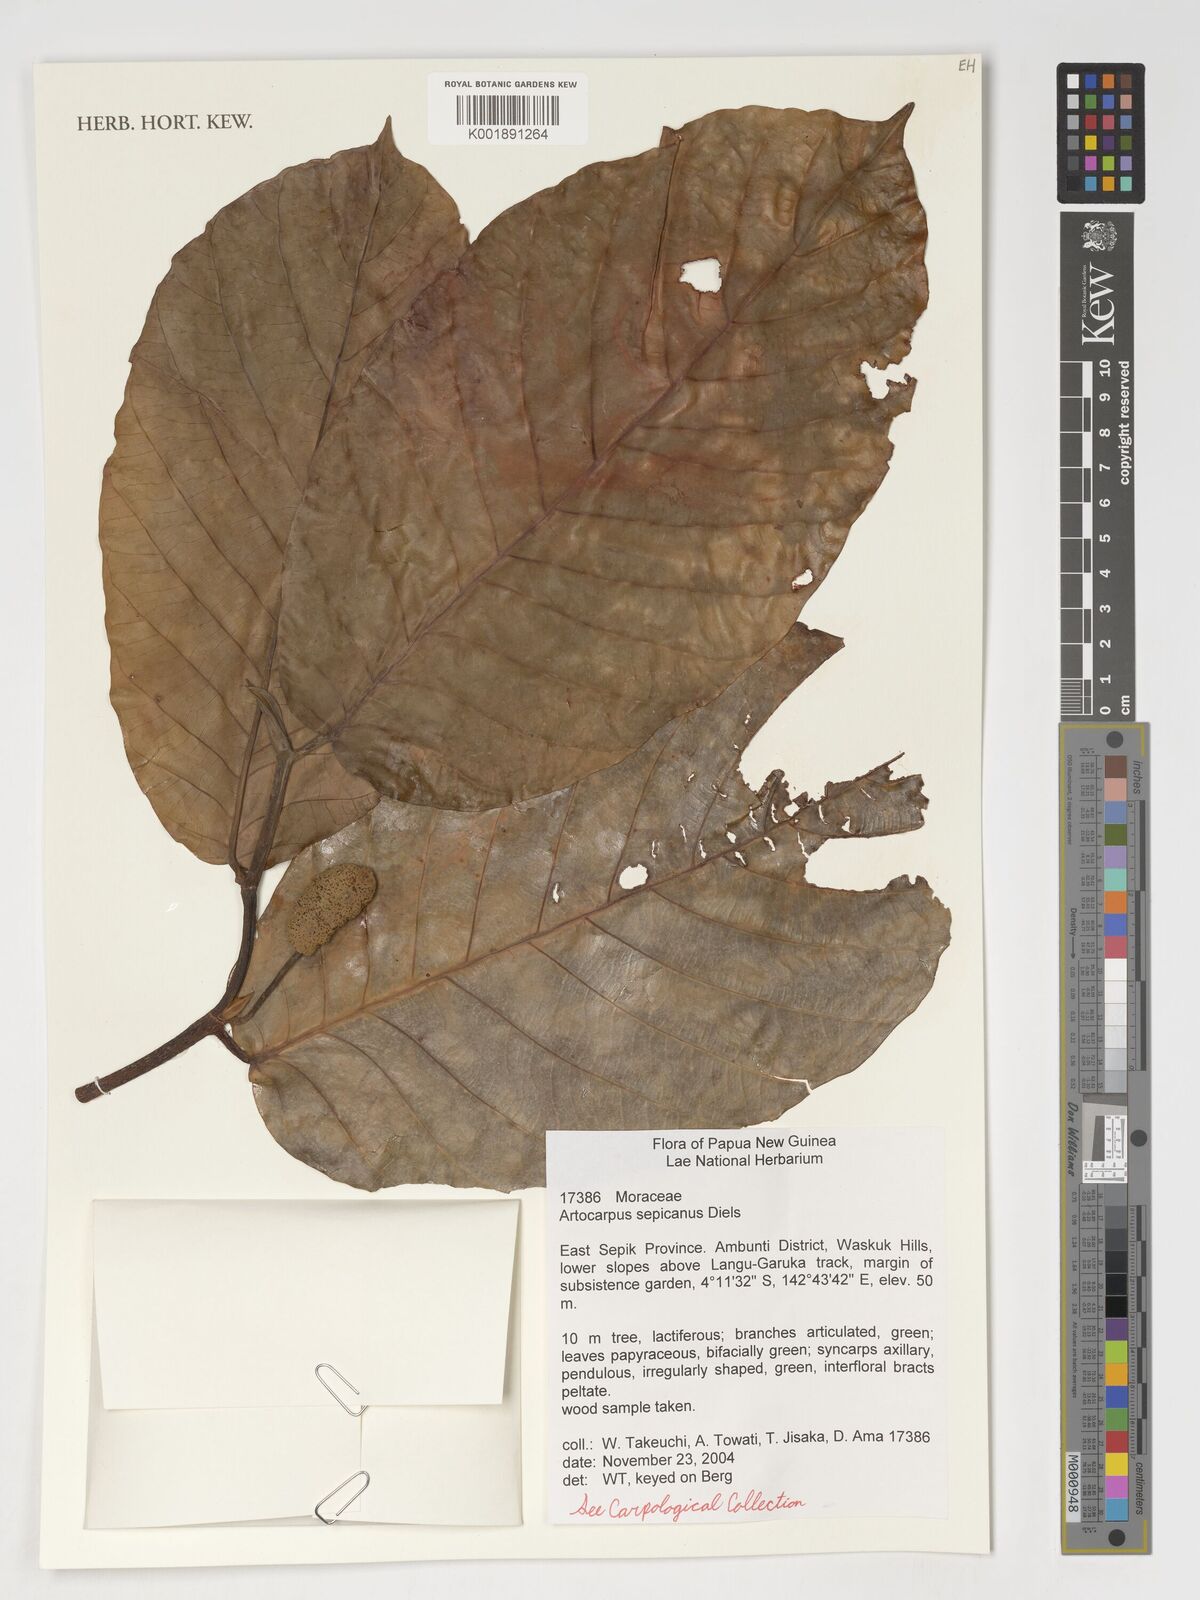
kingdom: Plantae
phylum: Tracheophyta
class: Magnoliopsida
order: Rosales
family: Moraceae
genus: Artocarpus
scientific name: Artocarpus sepicanus
